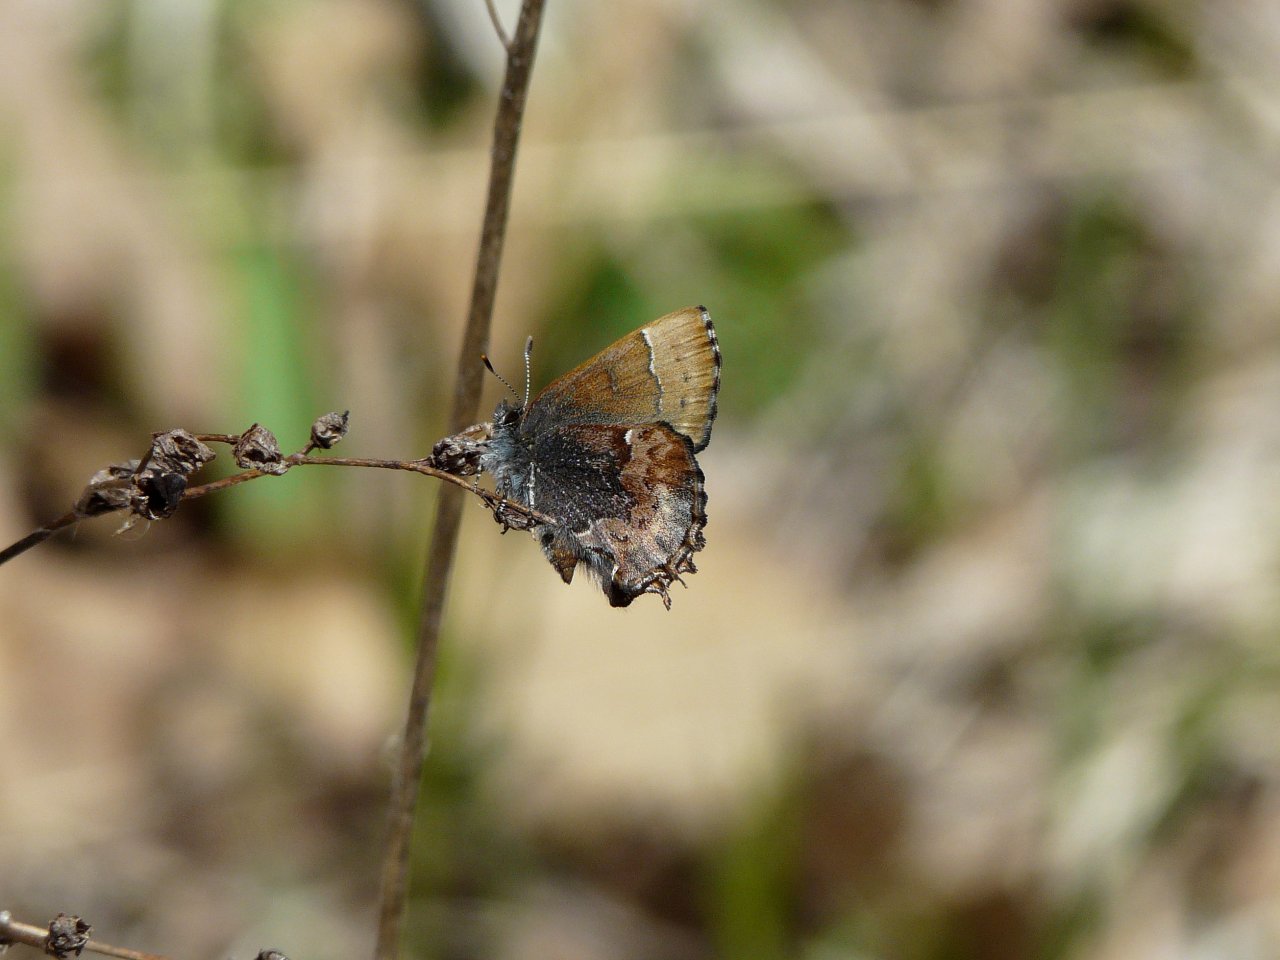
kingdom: Animalia
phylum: Arthropoda
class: Insecta
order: Lepidoptera
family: Lycaenidae
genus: Incisalia
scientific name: Incisalia henrici
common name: Henry's Elfin
